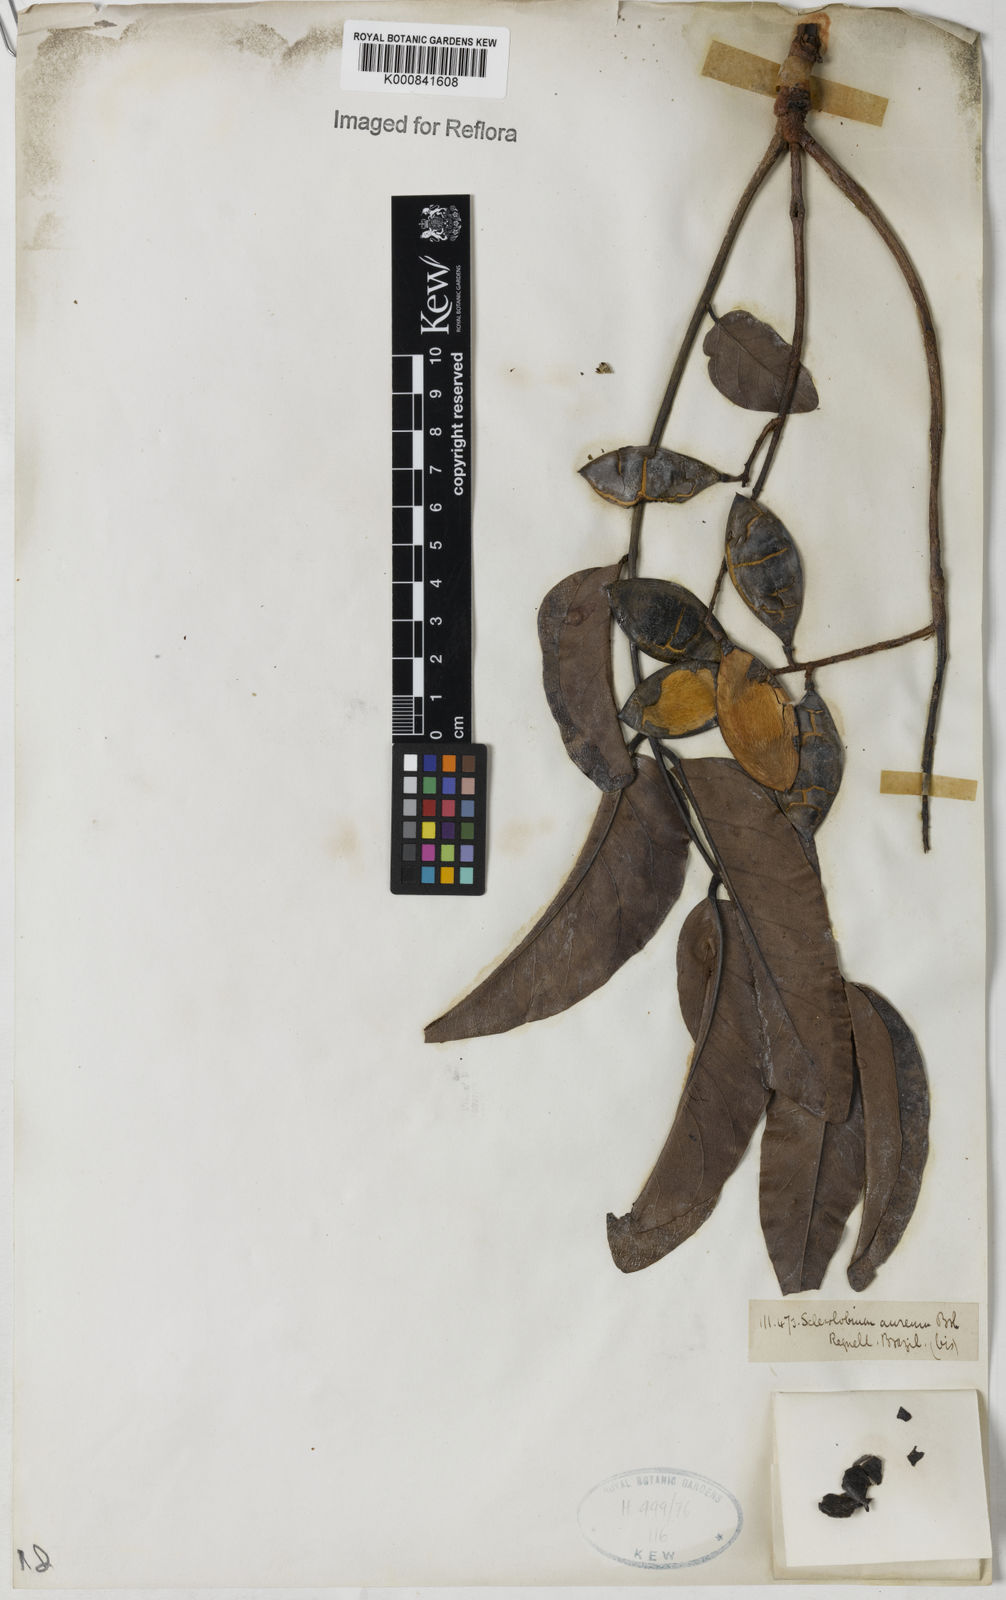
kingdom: Plantae
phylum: Tracheophyta
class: Magnoliopsida
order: Fabales
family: Fabaceae
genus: Tachigali
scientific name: Tachigali aurea
